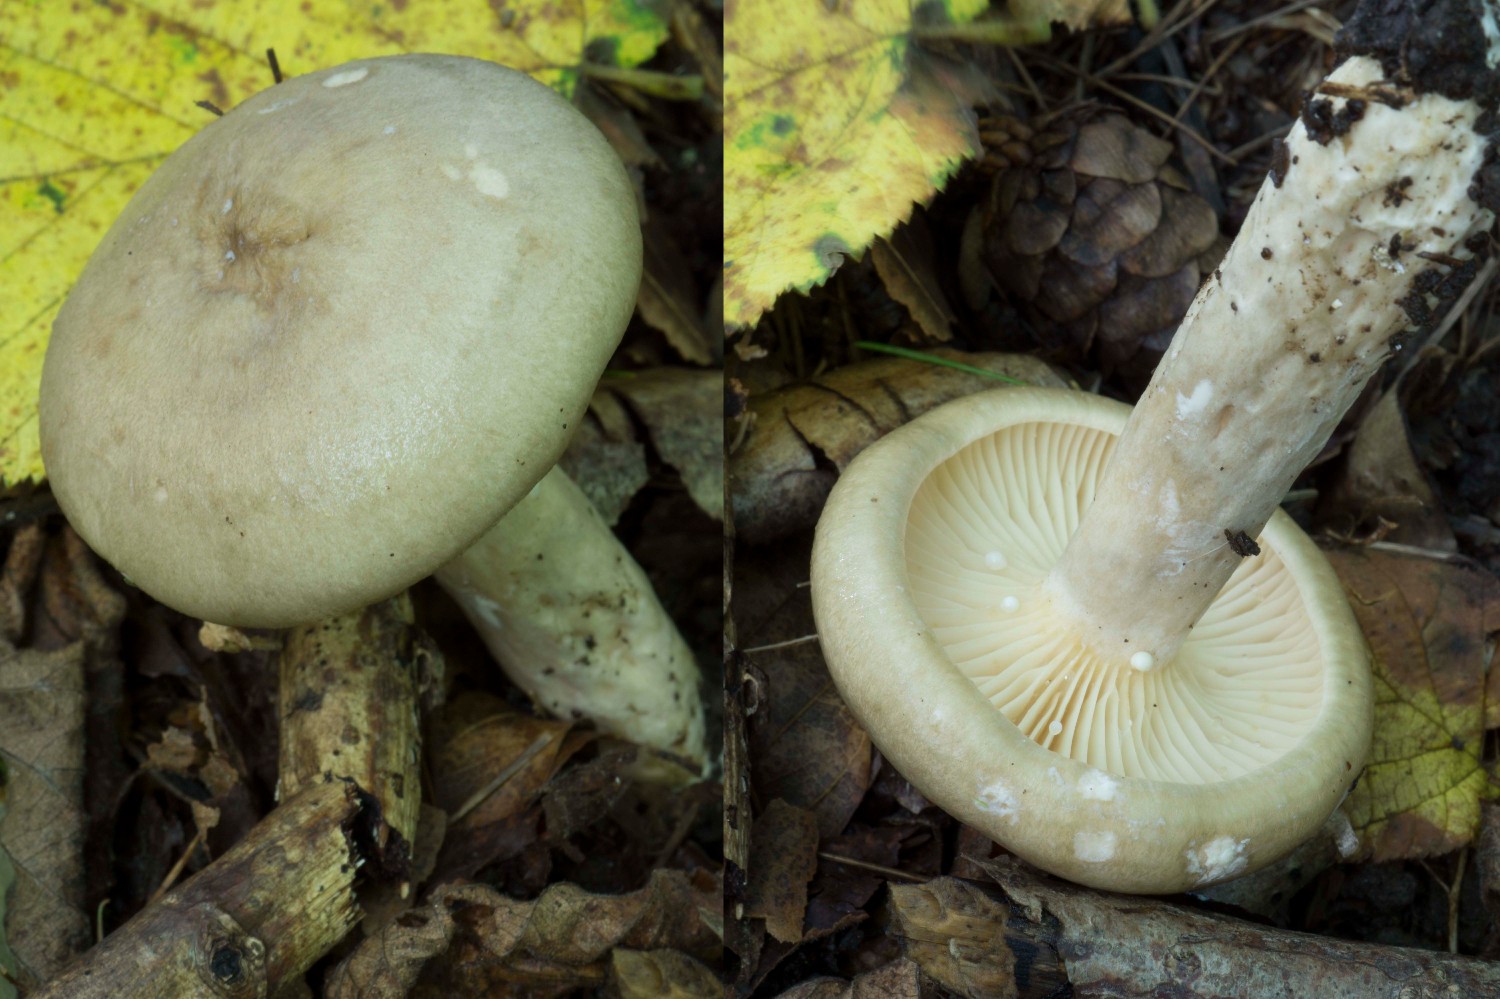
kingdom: Fungi
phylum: Basidiomycota
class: Agaricomycetes
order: Russulales
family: Russulaceae
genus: Lactarius
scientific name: Lactarius pyrogalus
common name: hassel-mælkehat
